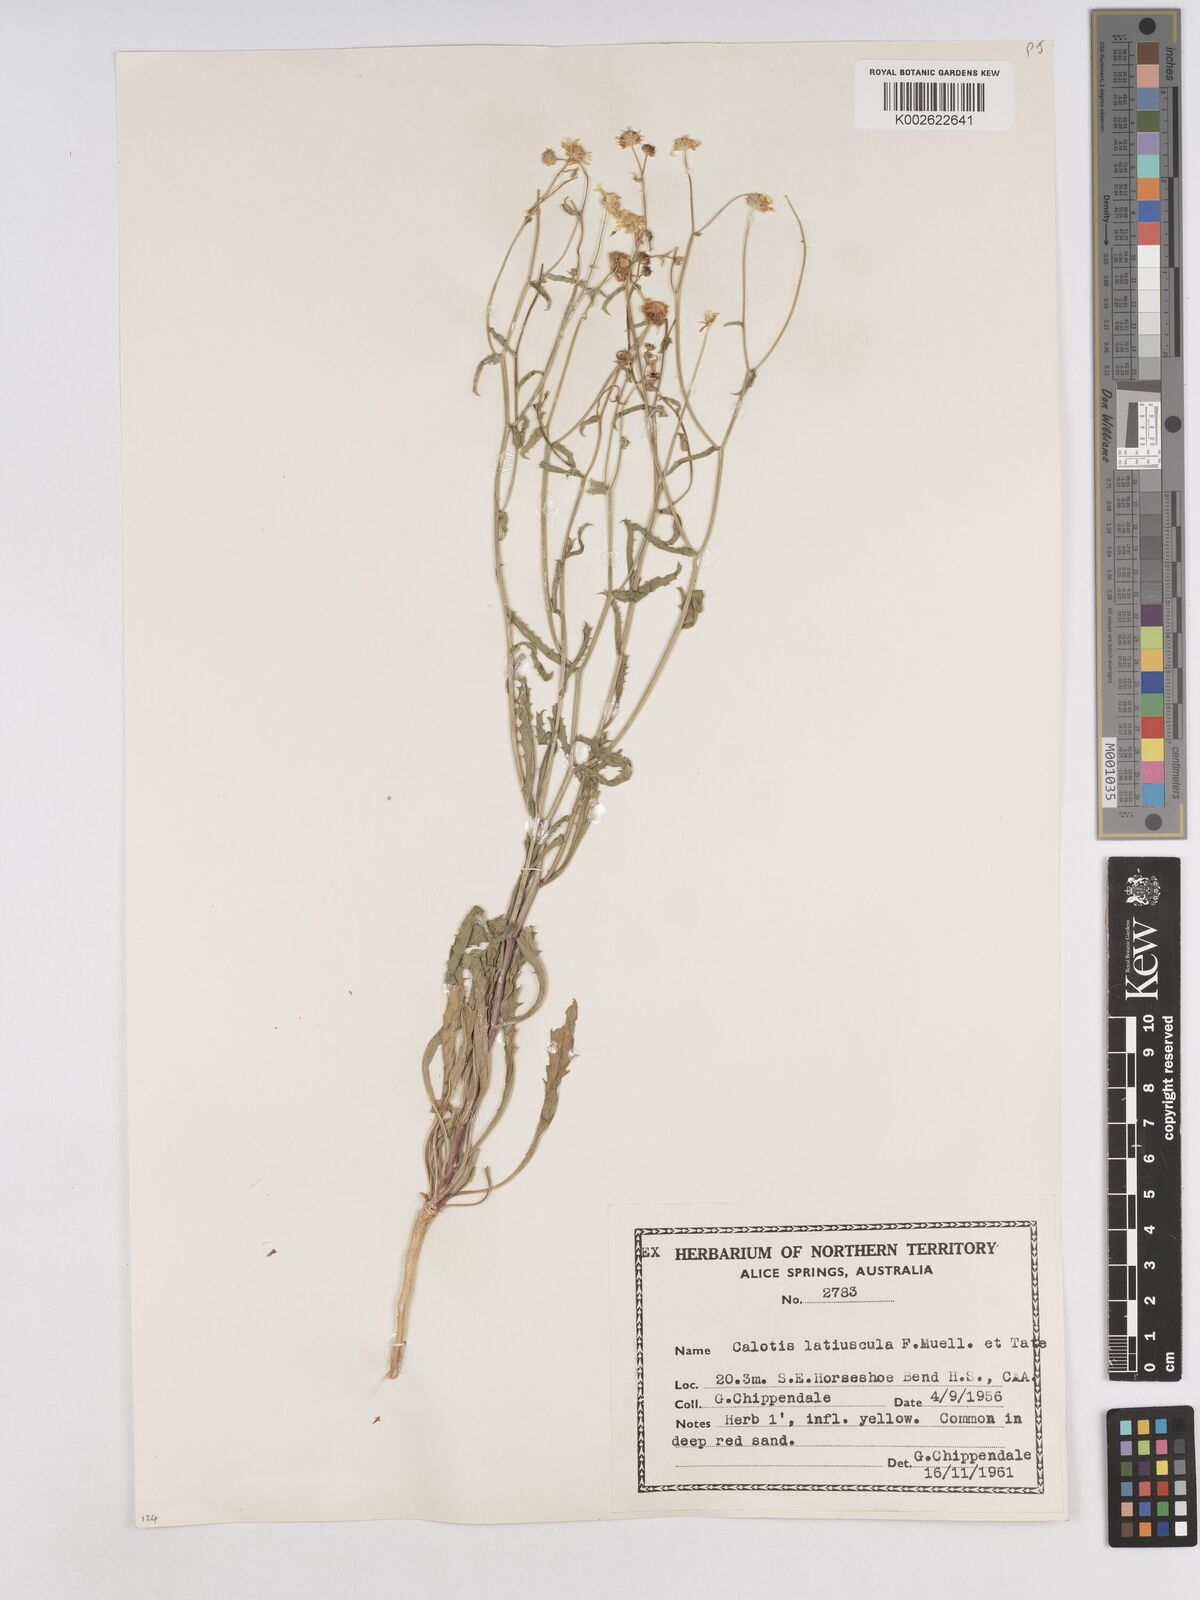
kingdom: Plantae
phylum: Tracheophyta
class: Magnoliopsida
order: Asterales
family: Asteraceae
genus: Calotis
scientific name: Calotis latiuscula
